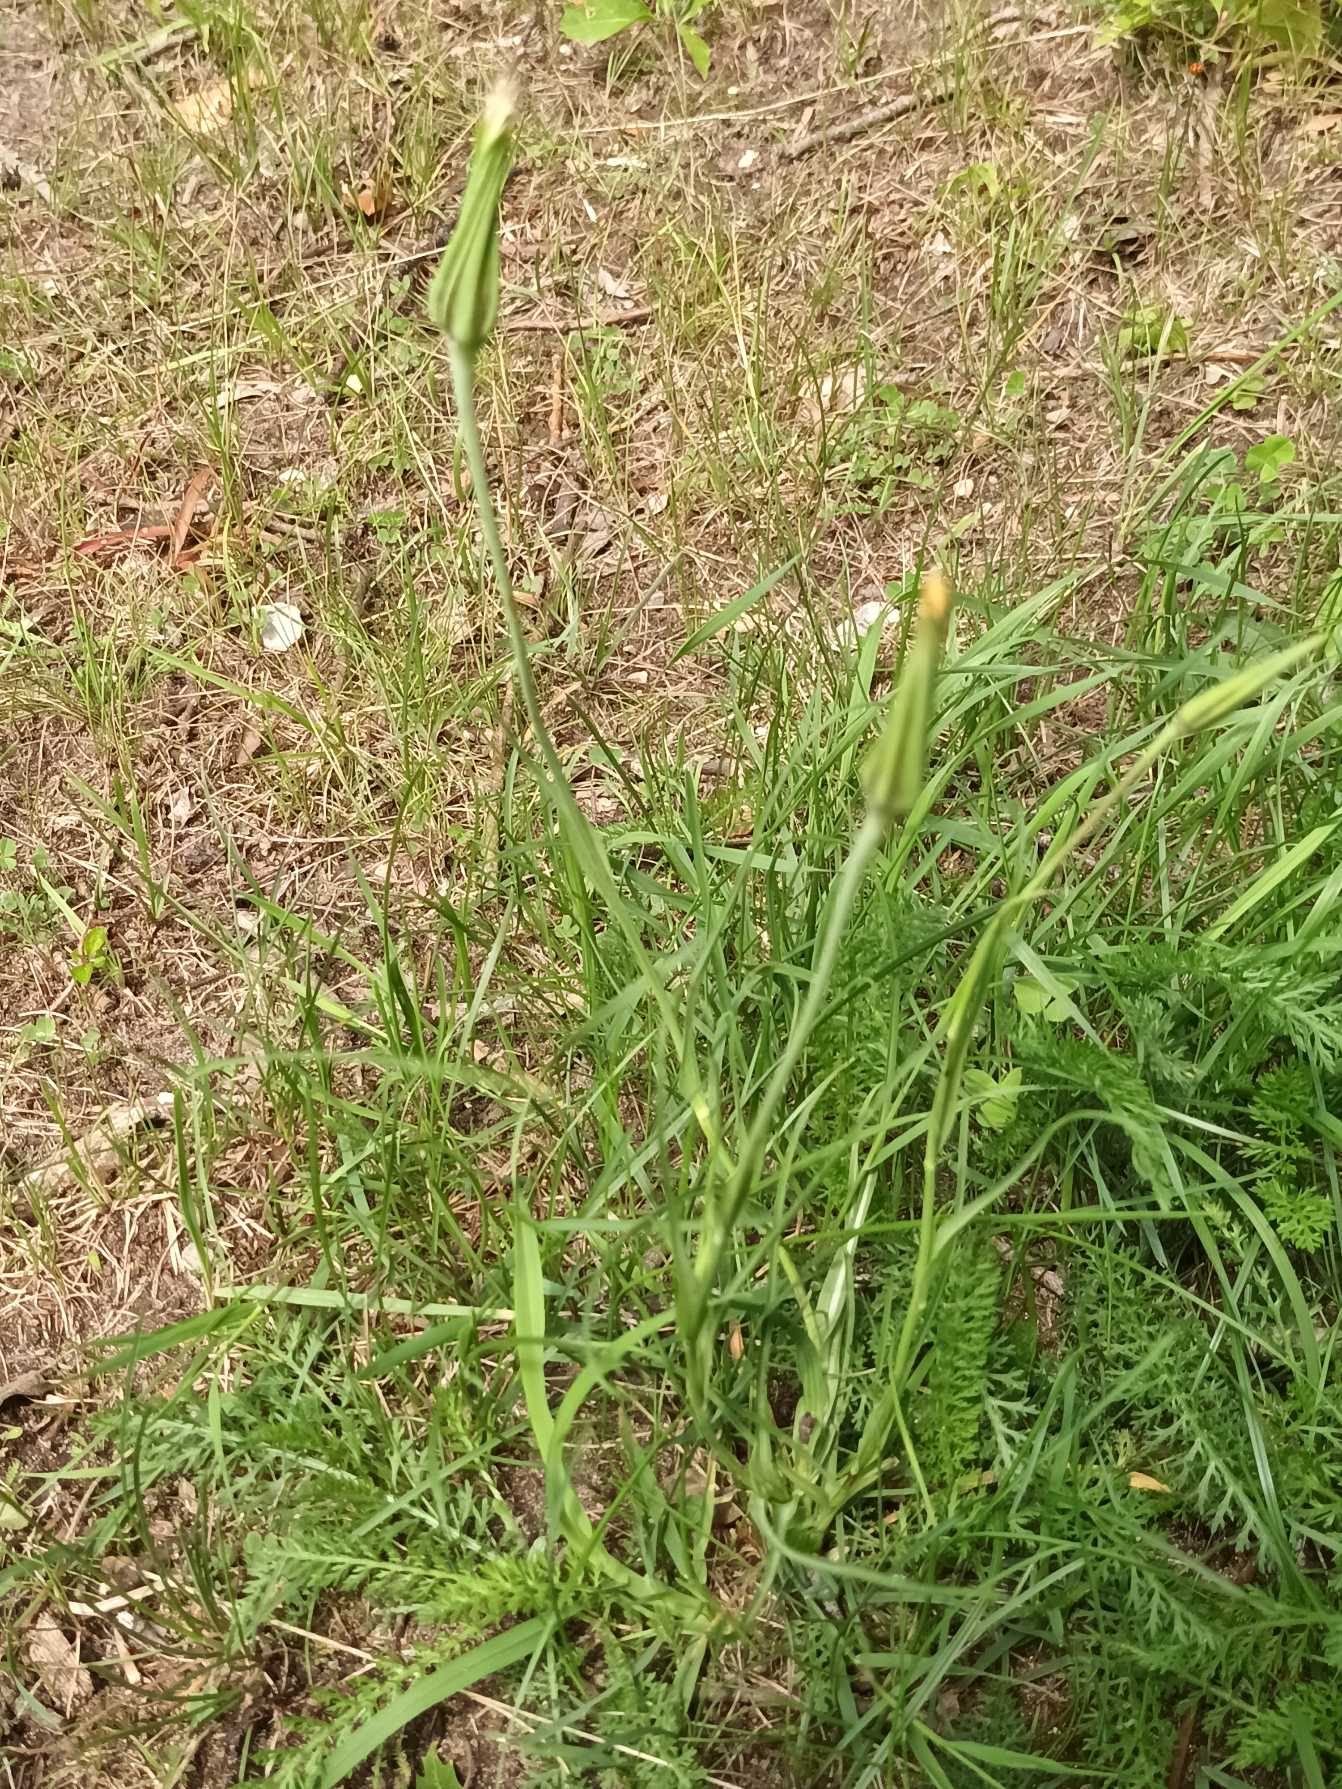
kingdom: Plantae
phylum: Tracheophyta
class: Magnoliopsida
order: Asterales
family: Asteraceae
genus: Tragopogon
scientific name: Tragopogon pratensis
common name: Gedeskæg
